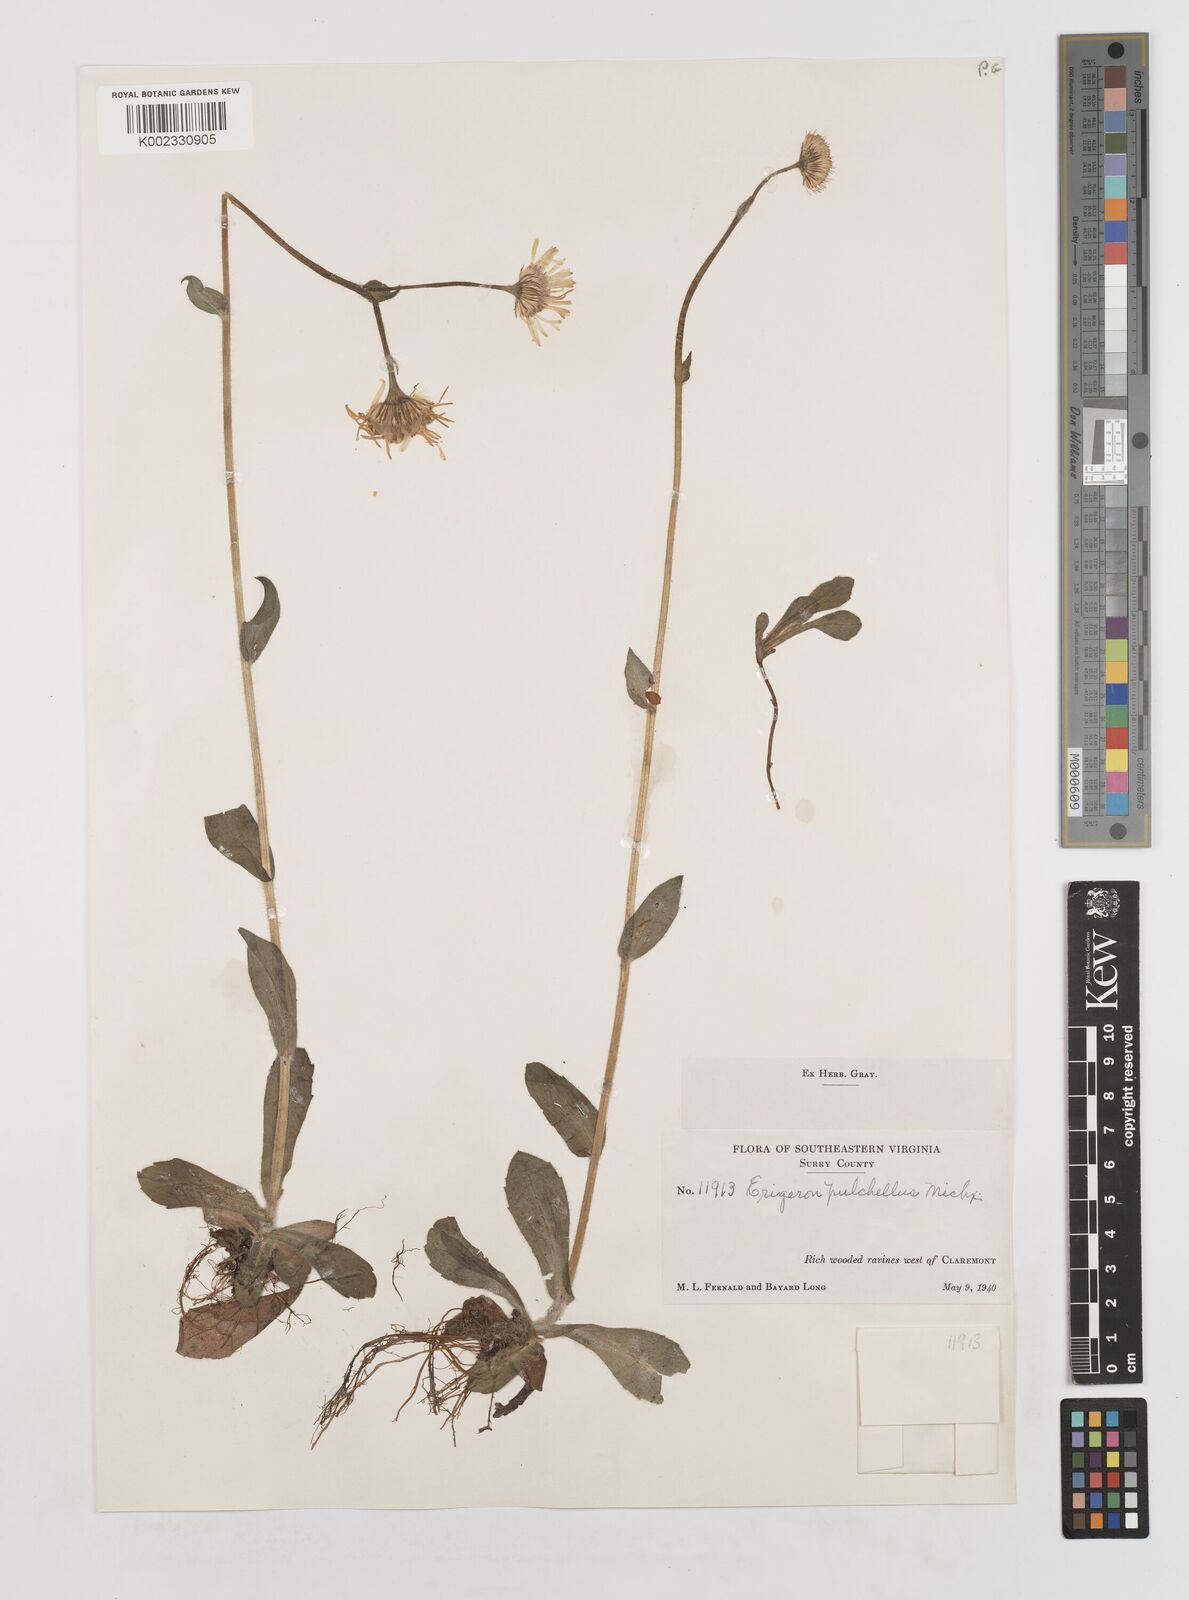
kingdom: Plantae
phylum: Tracheophyta
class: Magnoliopsida
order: Asterales
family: Asteraceae
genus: Erigeron
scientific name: Erigeron pulchellus
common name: Hairy fleabane
